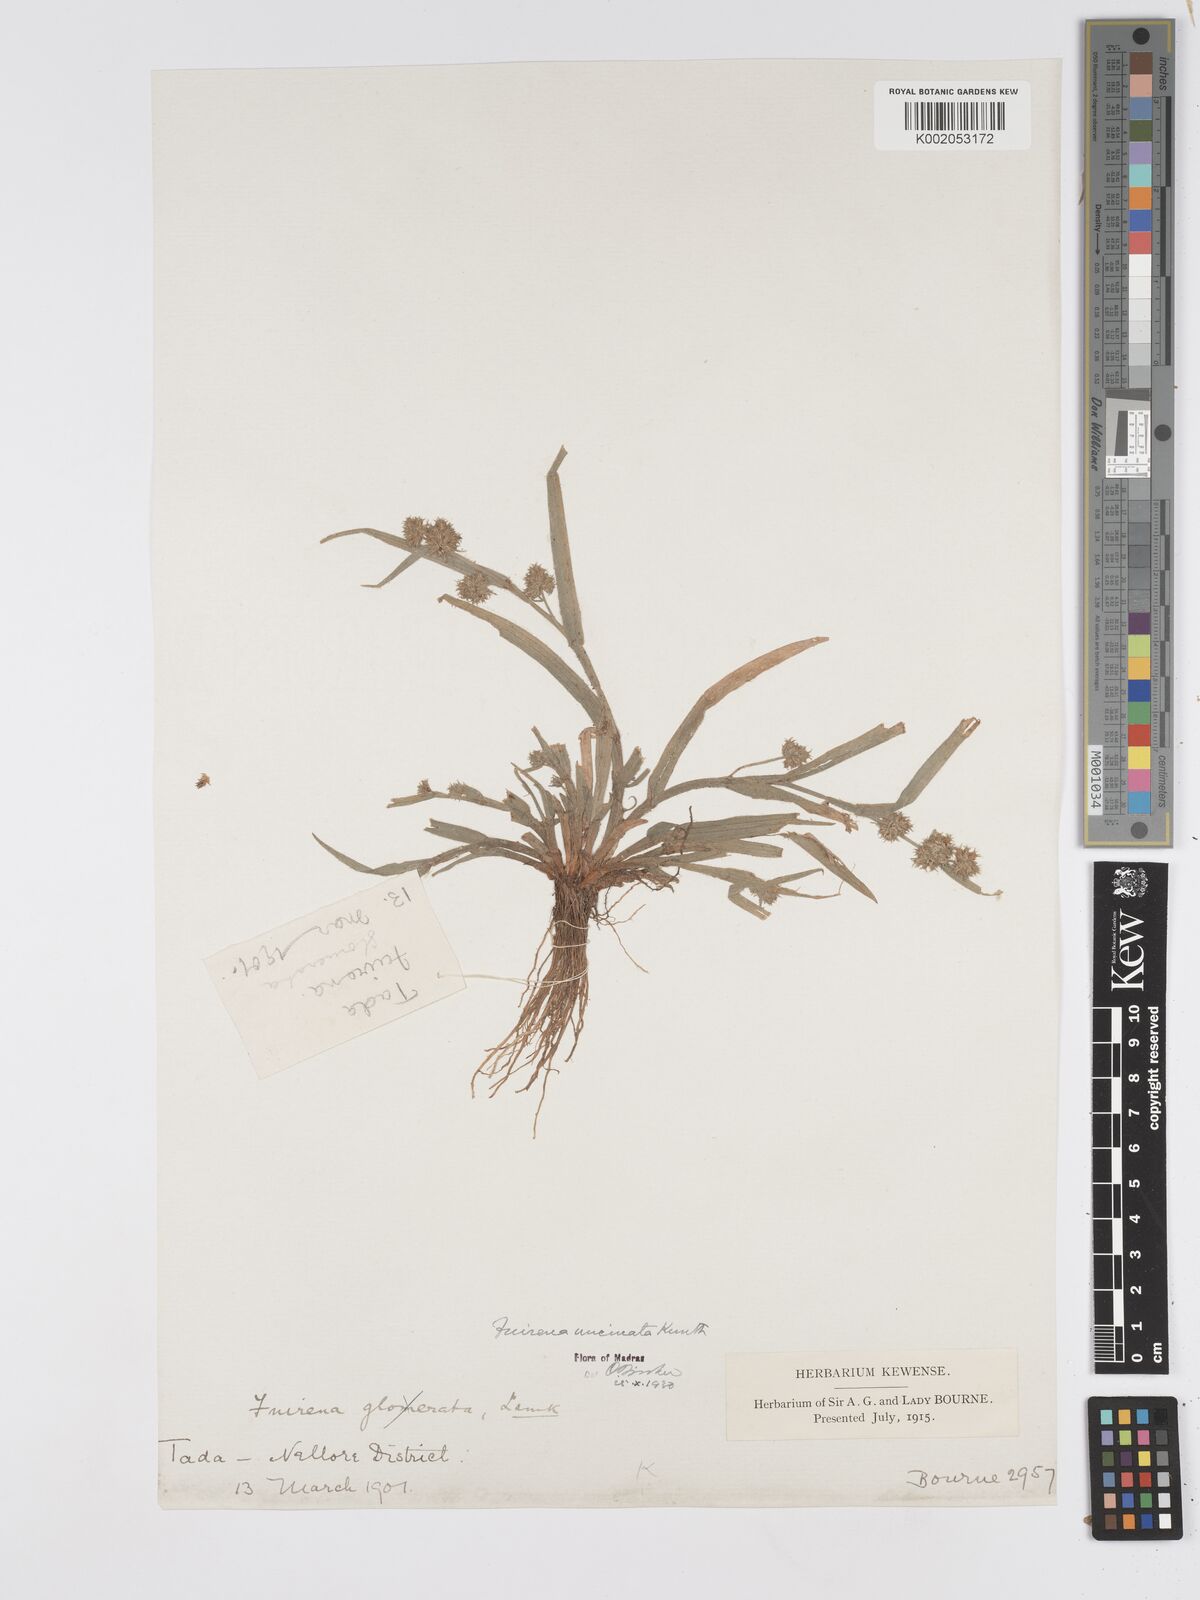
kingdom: Plantae
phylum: Tracheophyta
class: Liliopsida
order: Poales
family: Cyperaceae
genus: Fuirena
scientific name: Fuirena uncinata
